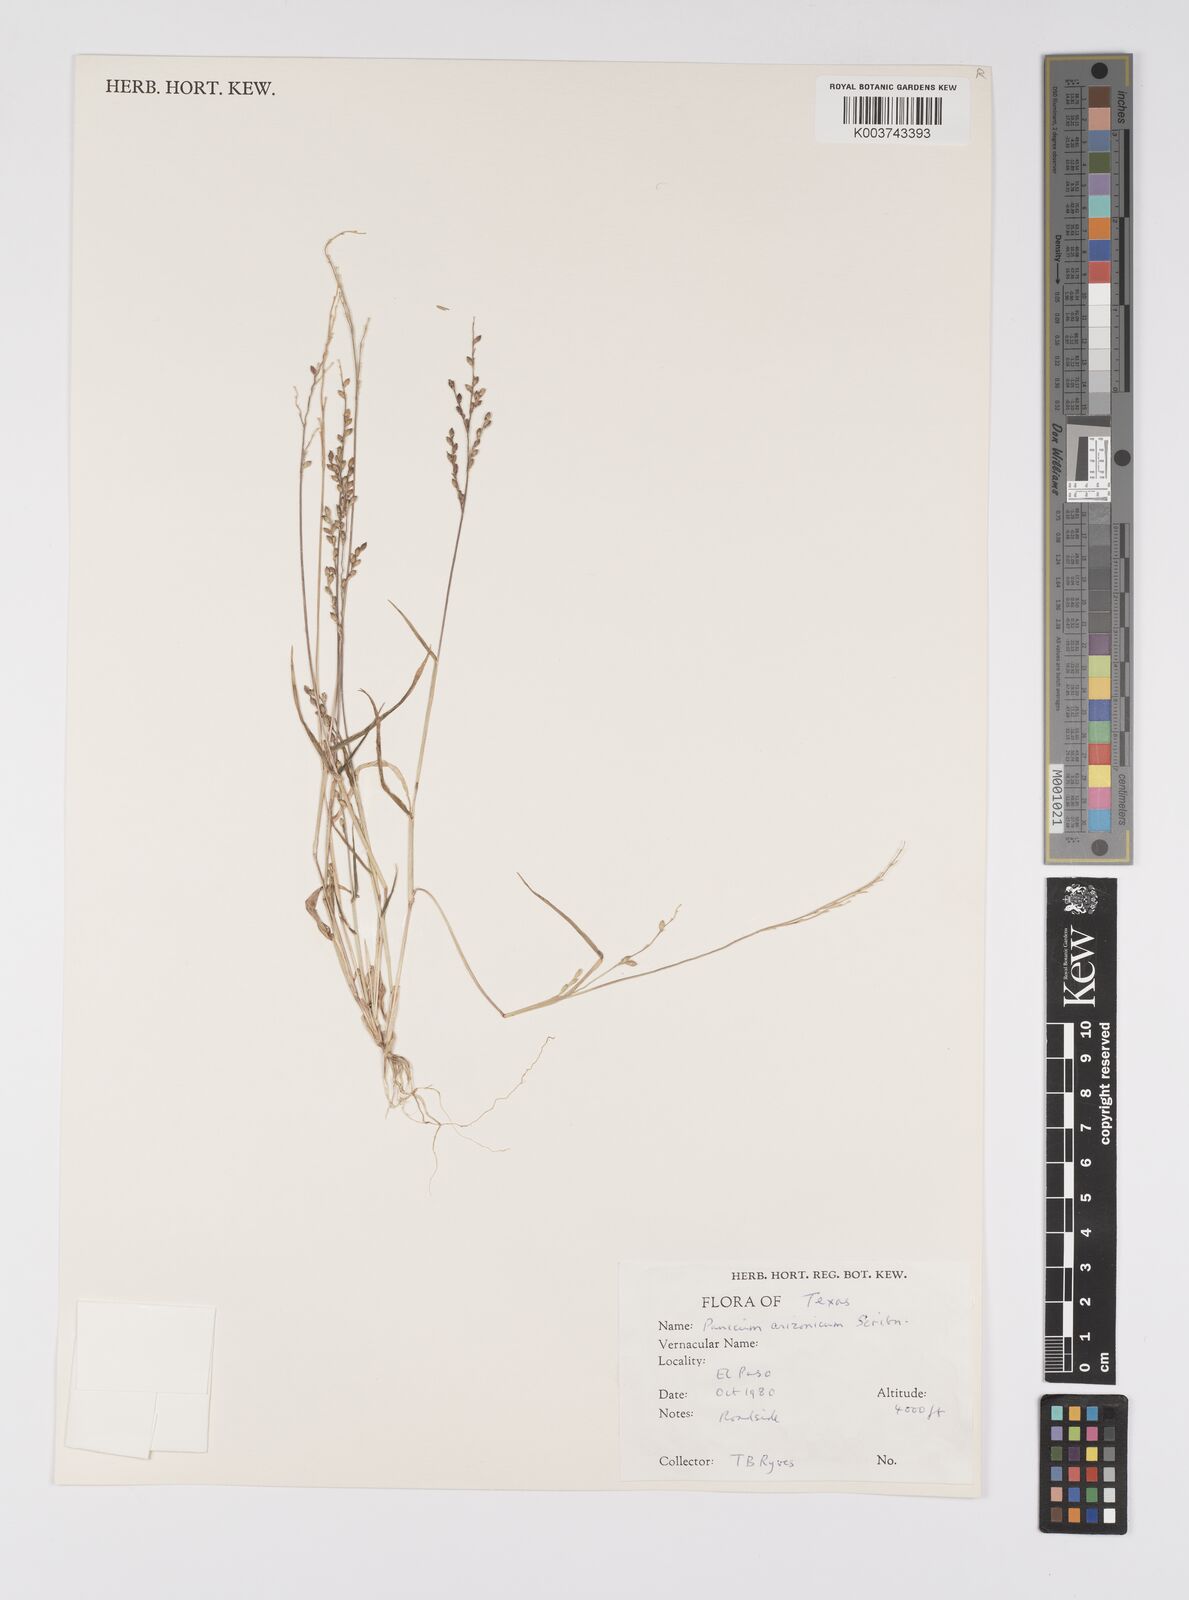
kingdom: Plantae
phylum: Tracheophyta
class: Liliopsida
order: Poales
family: Poaceae
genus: Urochloa
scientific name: Urochloa arizonica
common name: Arizona signal grass
